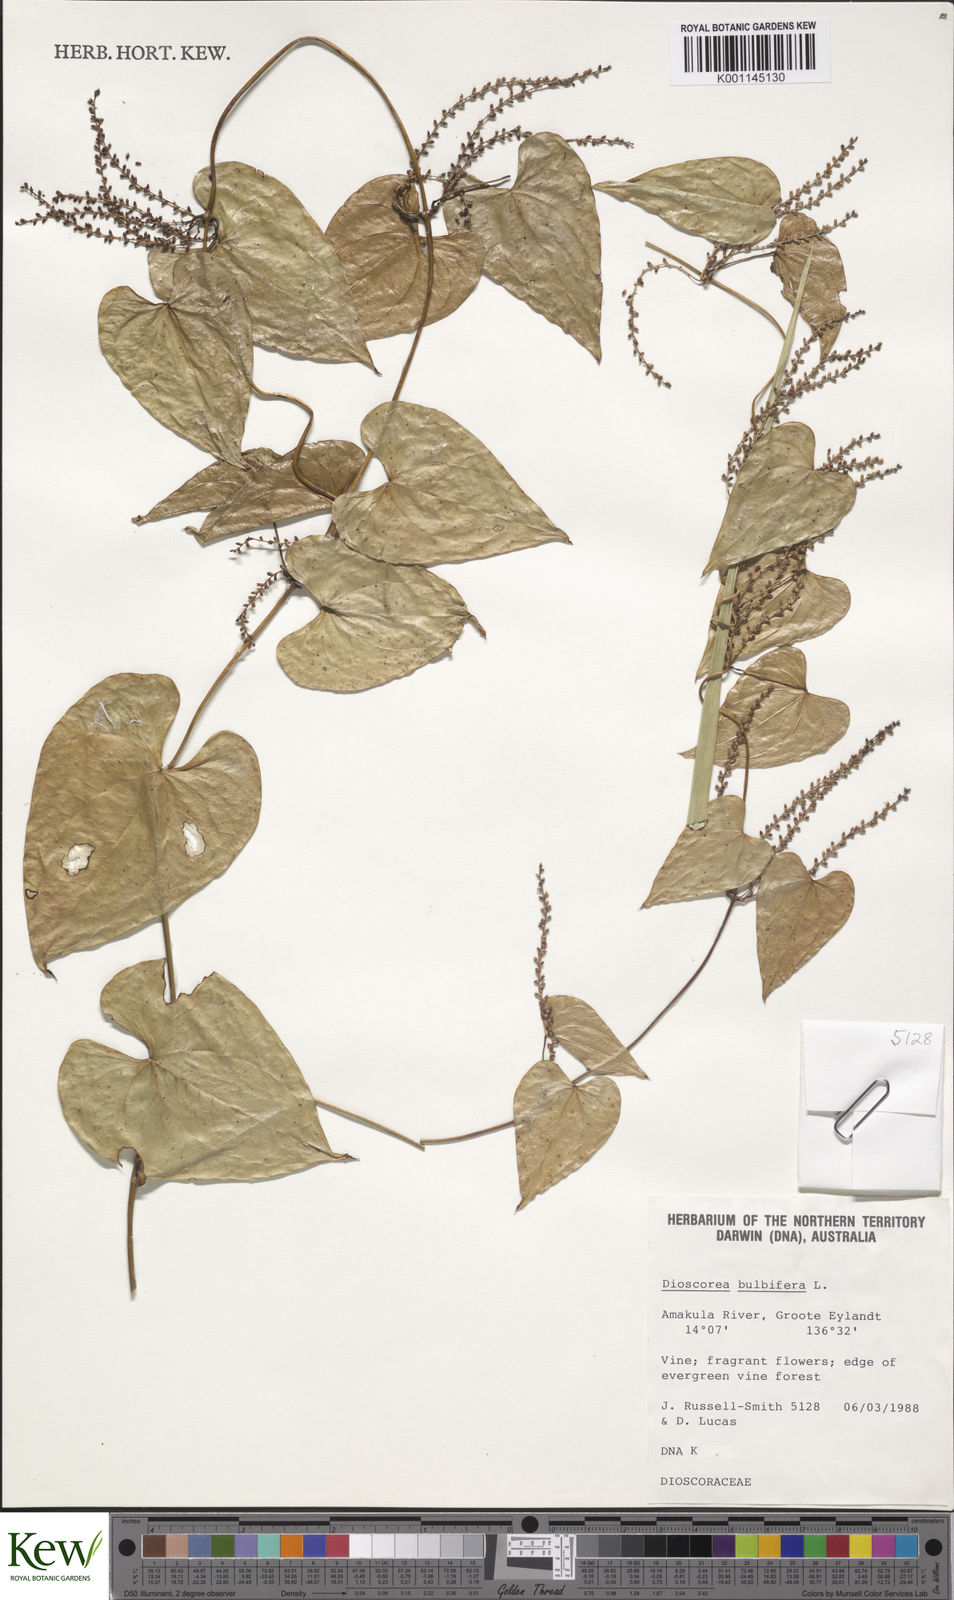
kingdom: Plantae
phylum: Tracheophyta
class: Liliopsida
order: Dioscoreales
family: Dioscoreaceae
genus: Dioscorea
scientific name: Dioscorea bulbifera
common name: Air yam
